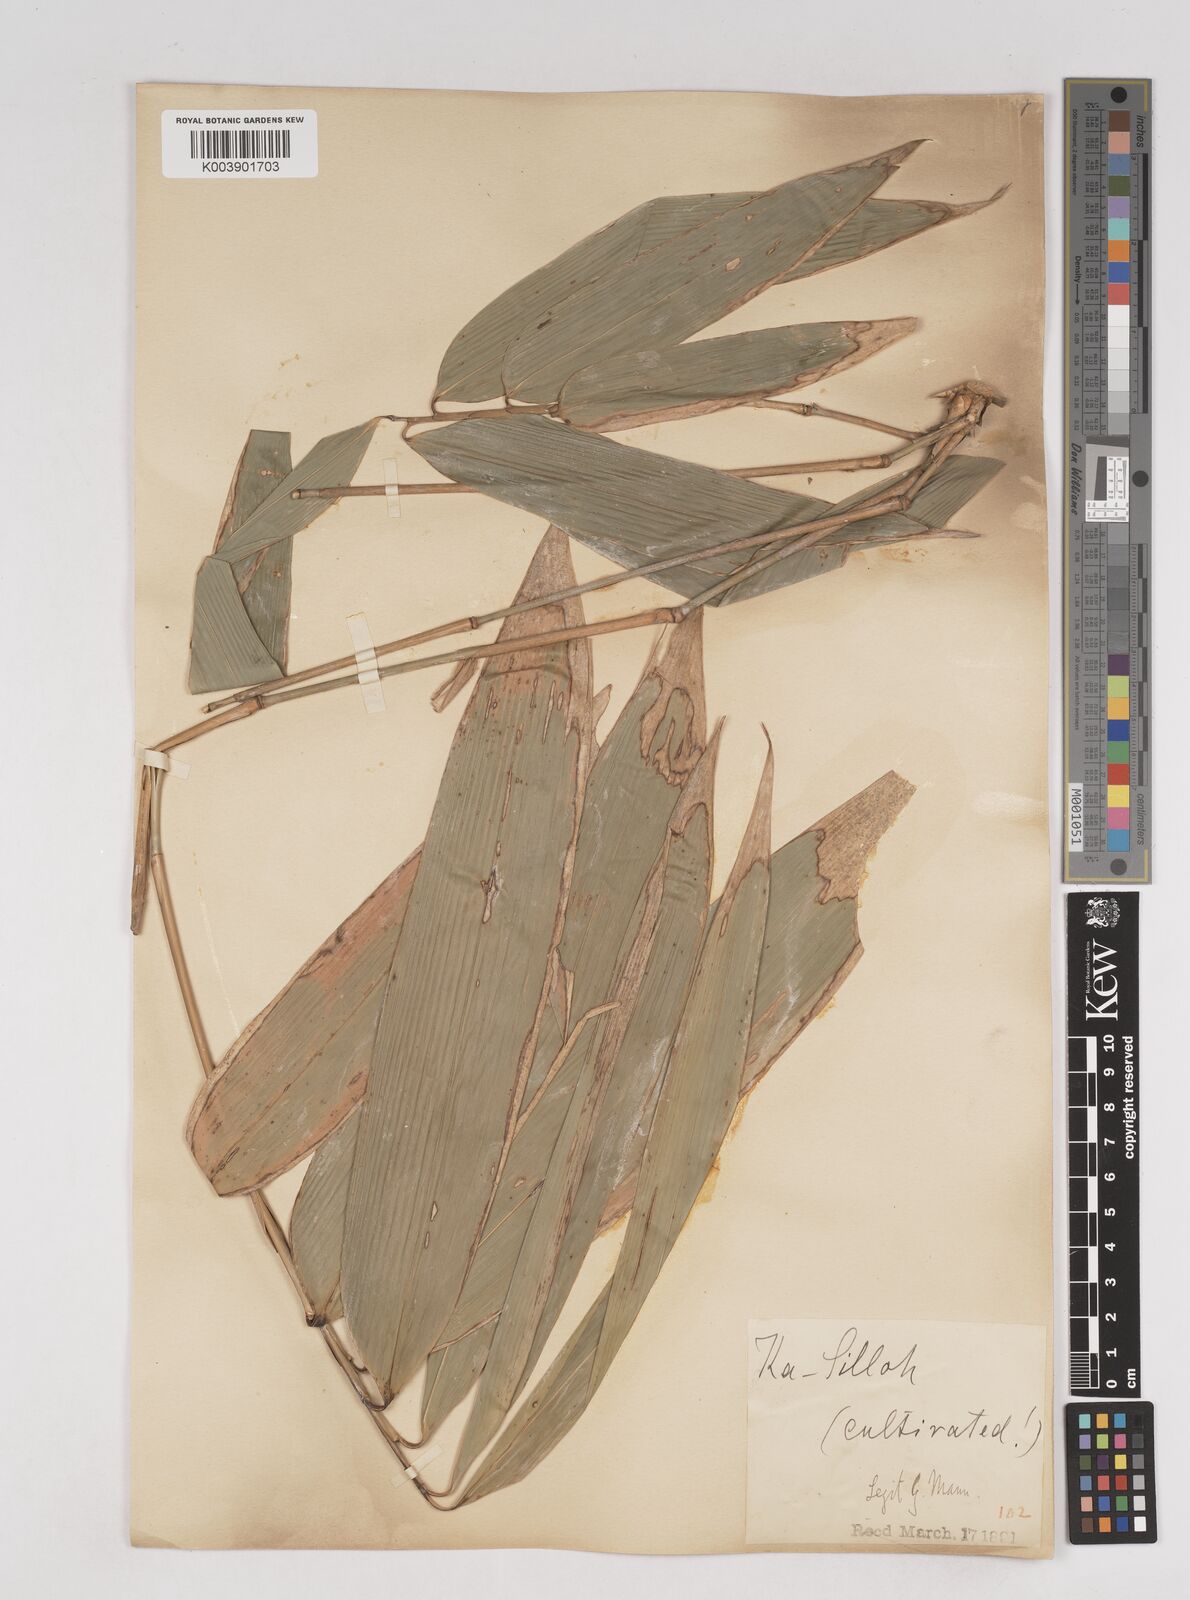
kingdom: Plantae
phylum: Tracheophyta
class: Liliopsida
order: Poales
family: Poaceae
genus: Schizostachyum
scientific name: Schizostachyum dullooa
